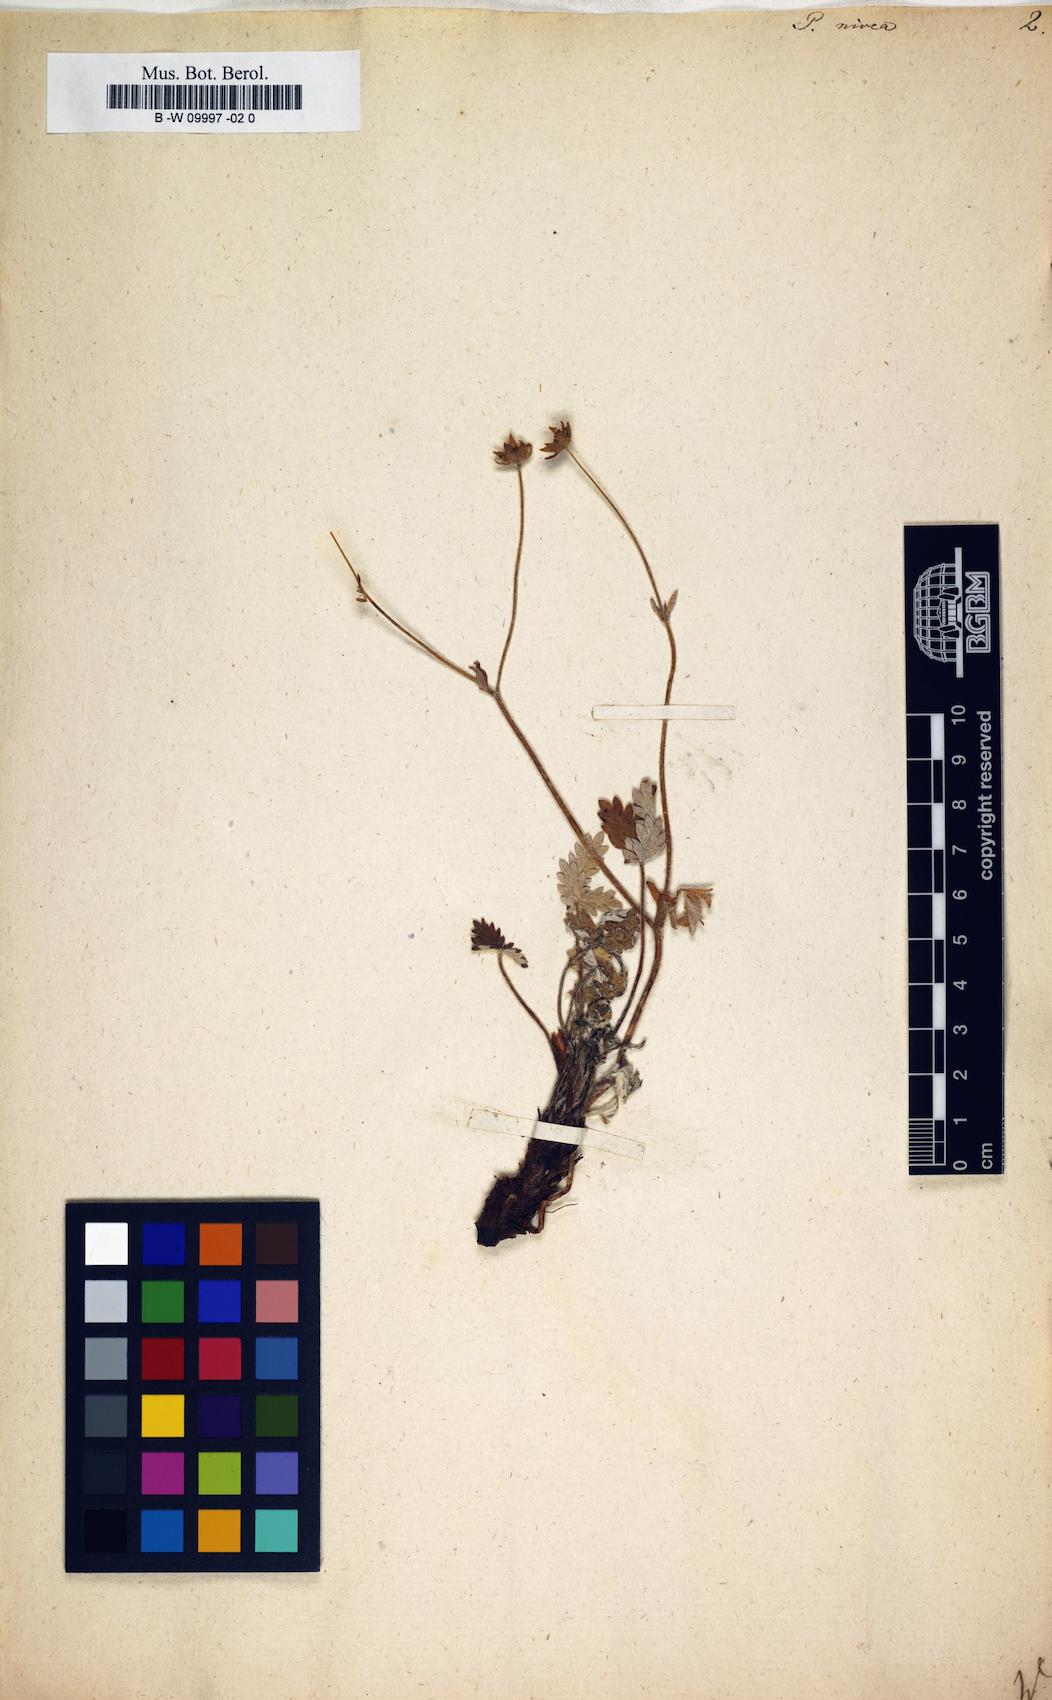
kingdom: Plantae
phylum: Tracheophyta
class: Magnoliopsida
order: Rosales
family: Rosaceae
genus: Potentilla
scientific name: Potentilla nivea
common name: Snow cinquefoil
